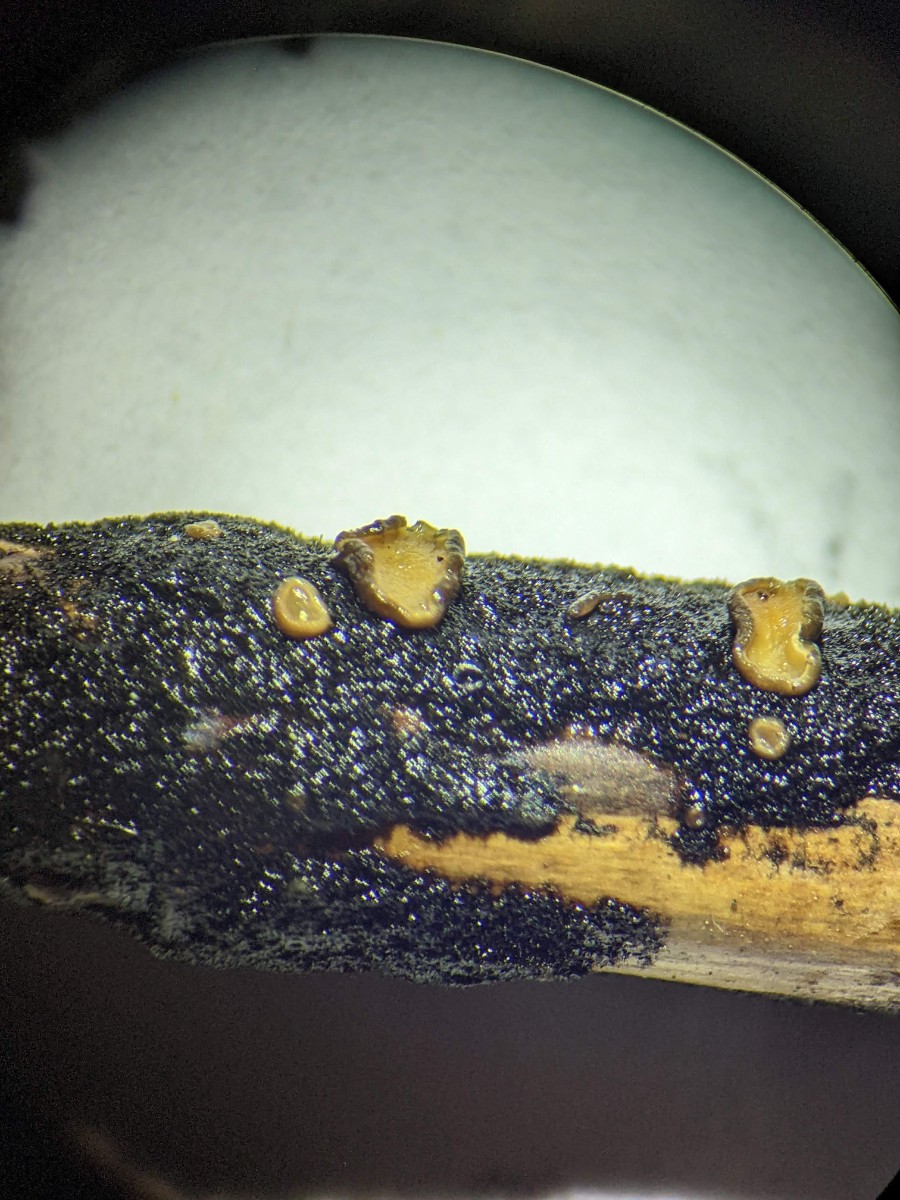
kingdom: Fungi
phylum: Ascomycota
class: Leotiomycetes
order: Helotiales
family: Mollisiaceae
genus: Trichobelonium
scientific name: Trichobelonium kneiffii
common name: tagrør-gråskive
